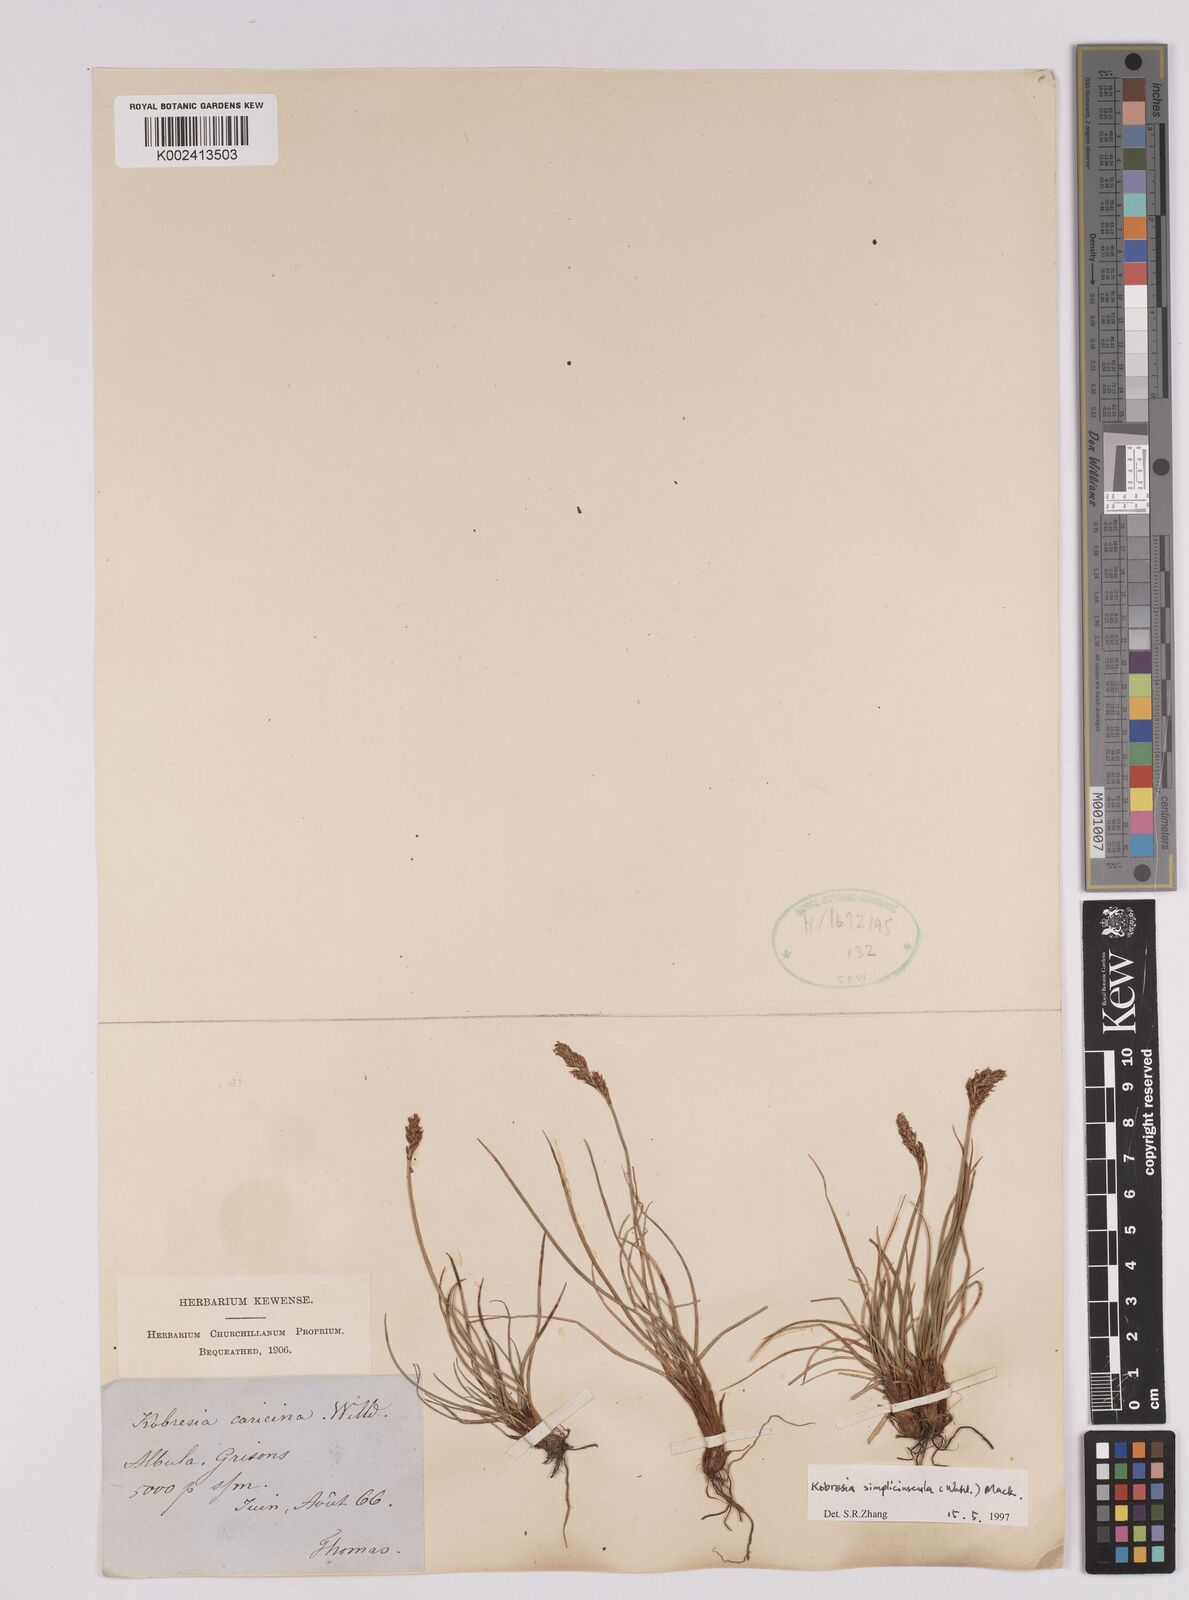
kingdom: Plantae
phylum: Tracheophyta
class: Liliopsida
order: Poales
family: Cyperaceae
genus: Carex
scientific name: Carex simpliciuscula
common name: Simple bog sedge
